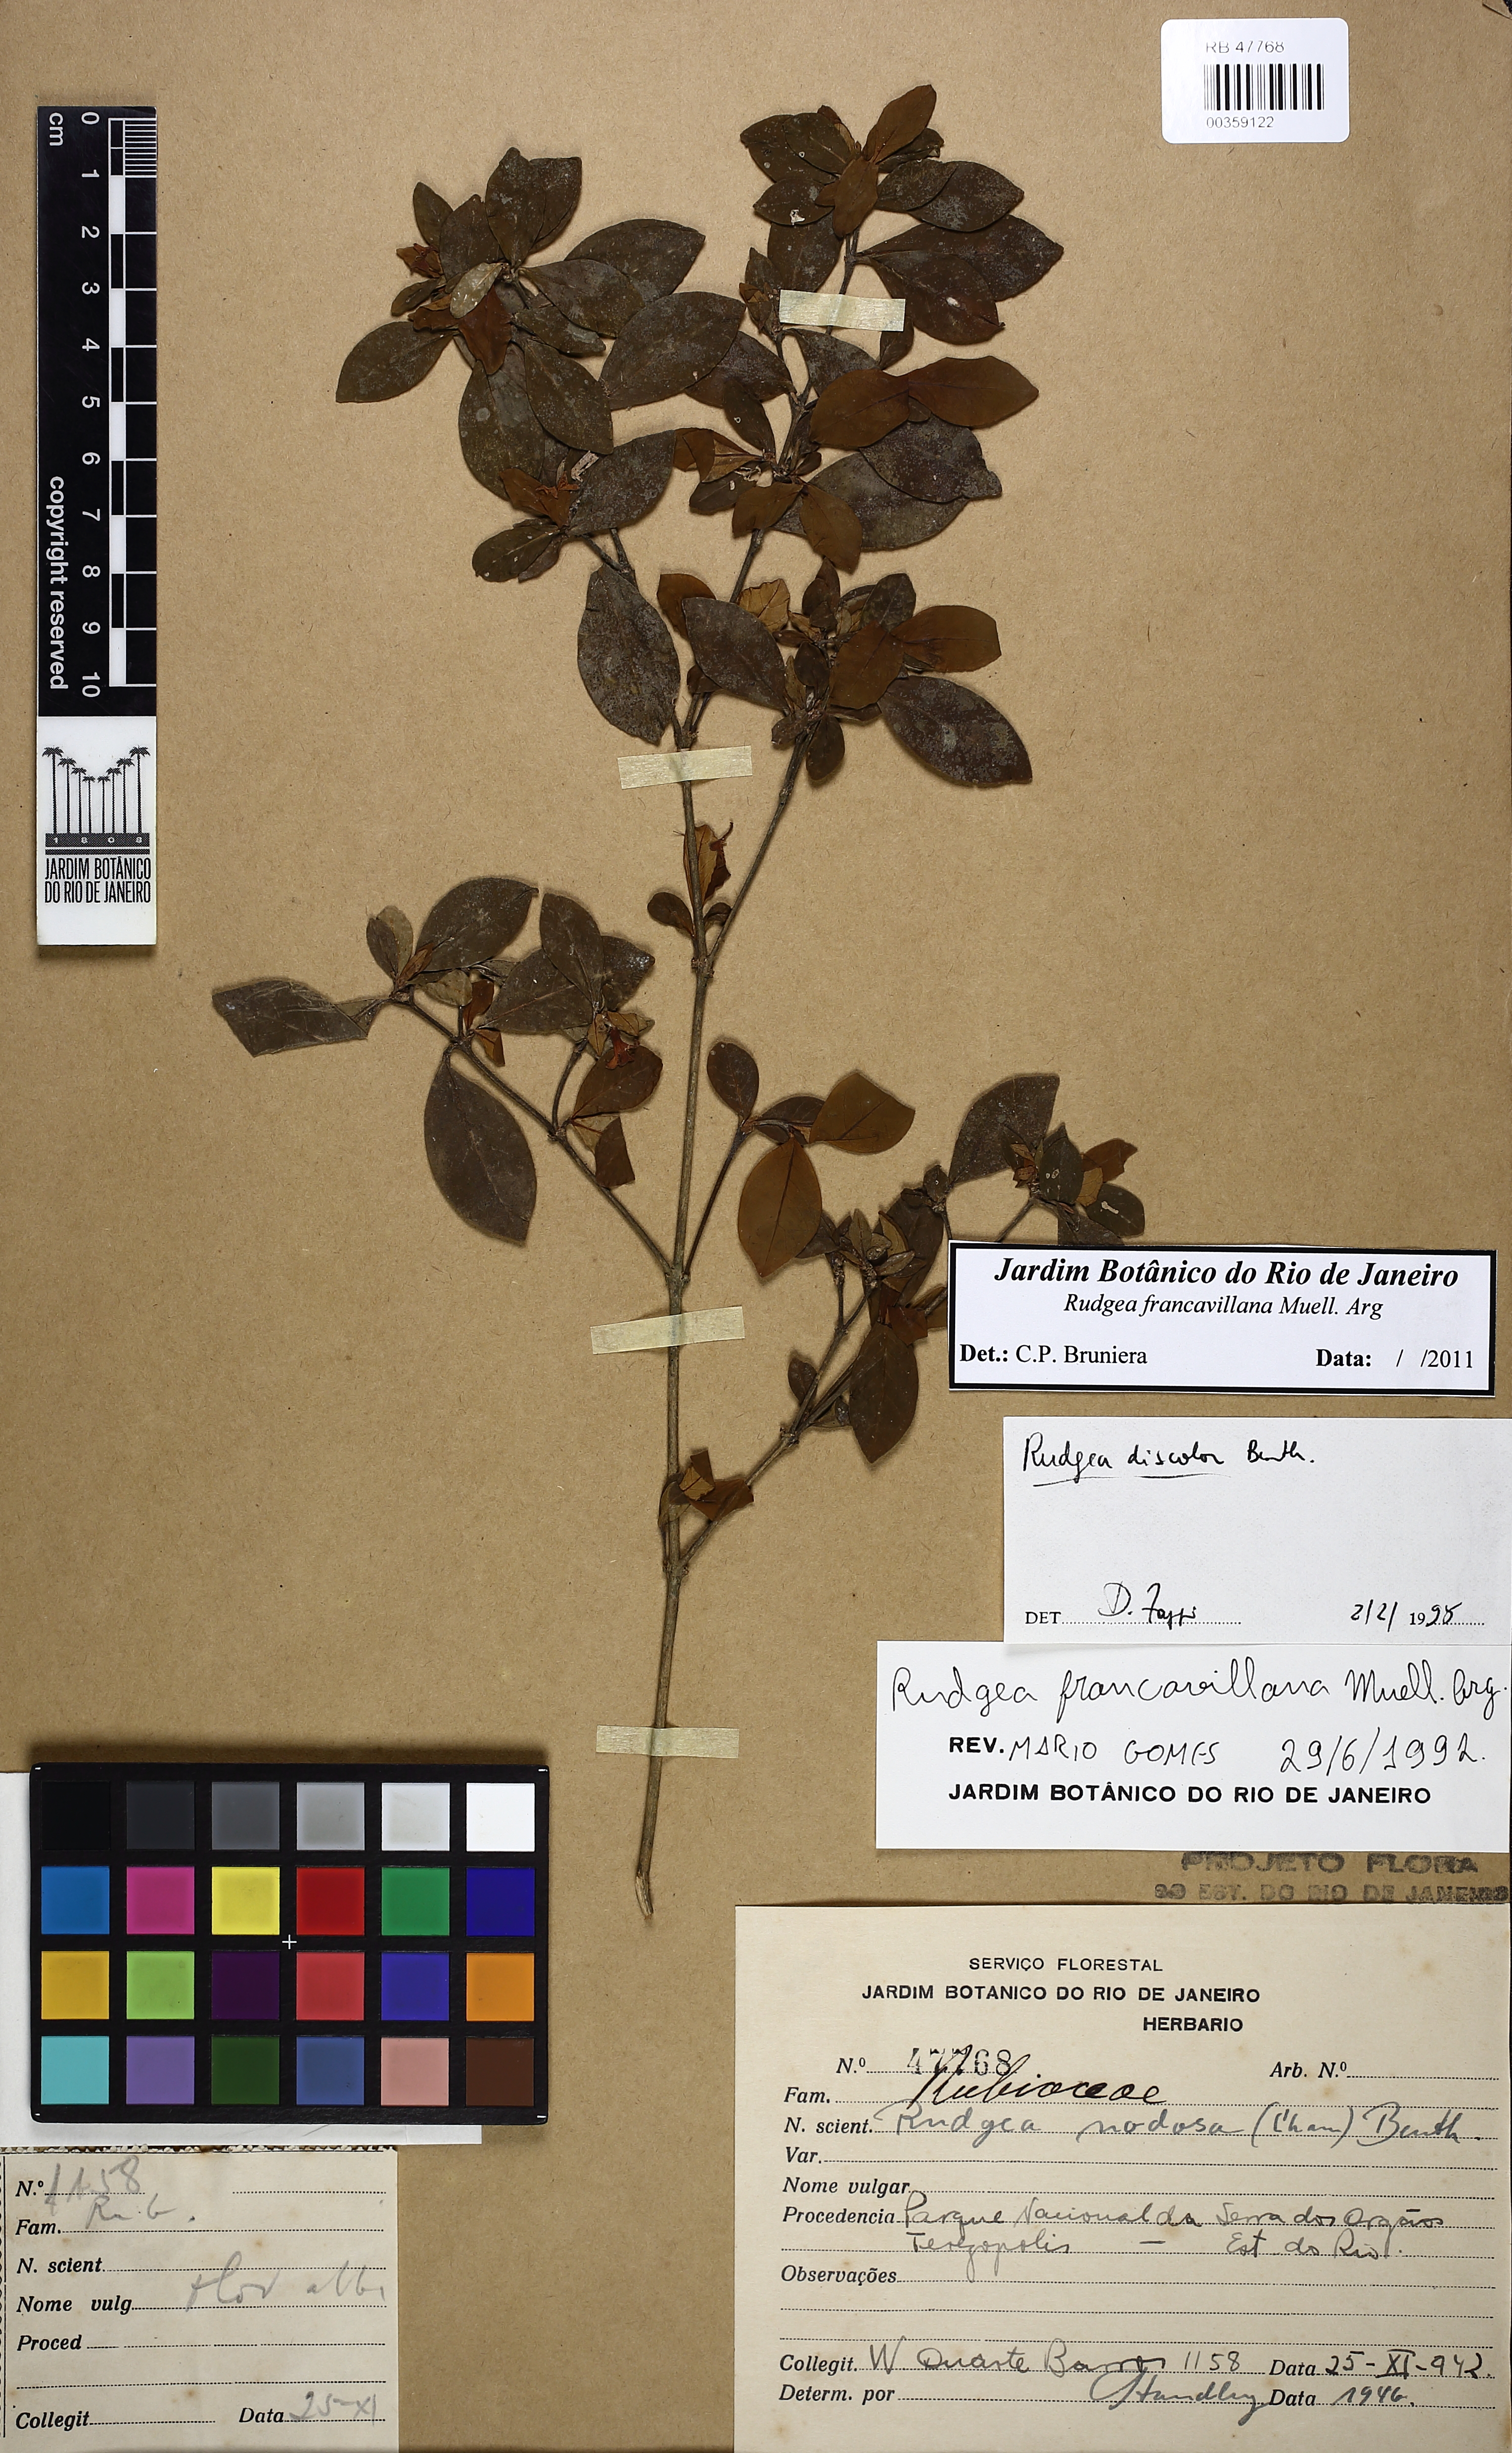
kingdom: Plantae
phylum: Tracheophyta
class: Magnoliopsida
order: Gentianales
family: Rubiaceae
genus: Rudgea
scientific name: Rudgea francavillana
